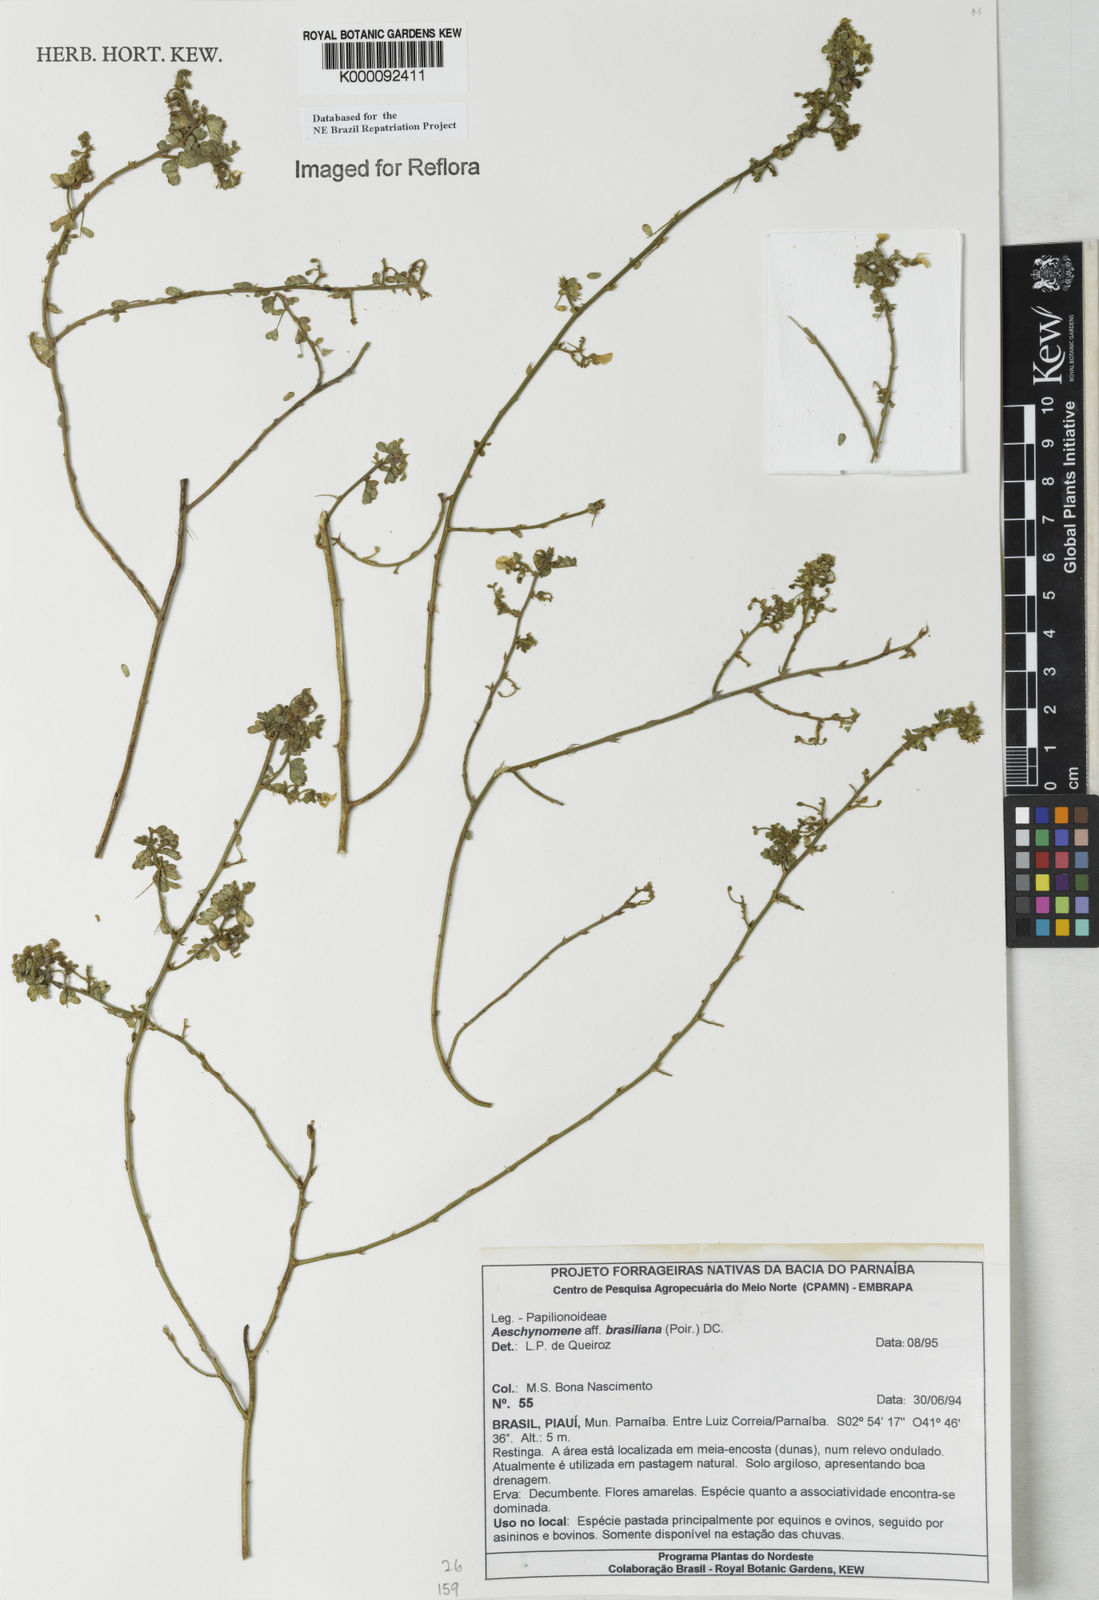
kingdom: Plantae
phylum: Tracheophyta
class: Magnoliopsida
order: Fabales
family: Fabaceae
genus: Ctenodon
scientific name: Ctenodon brasilianus
